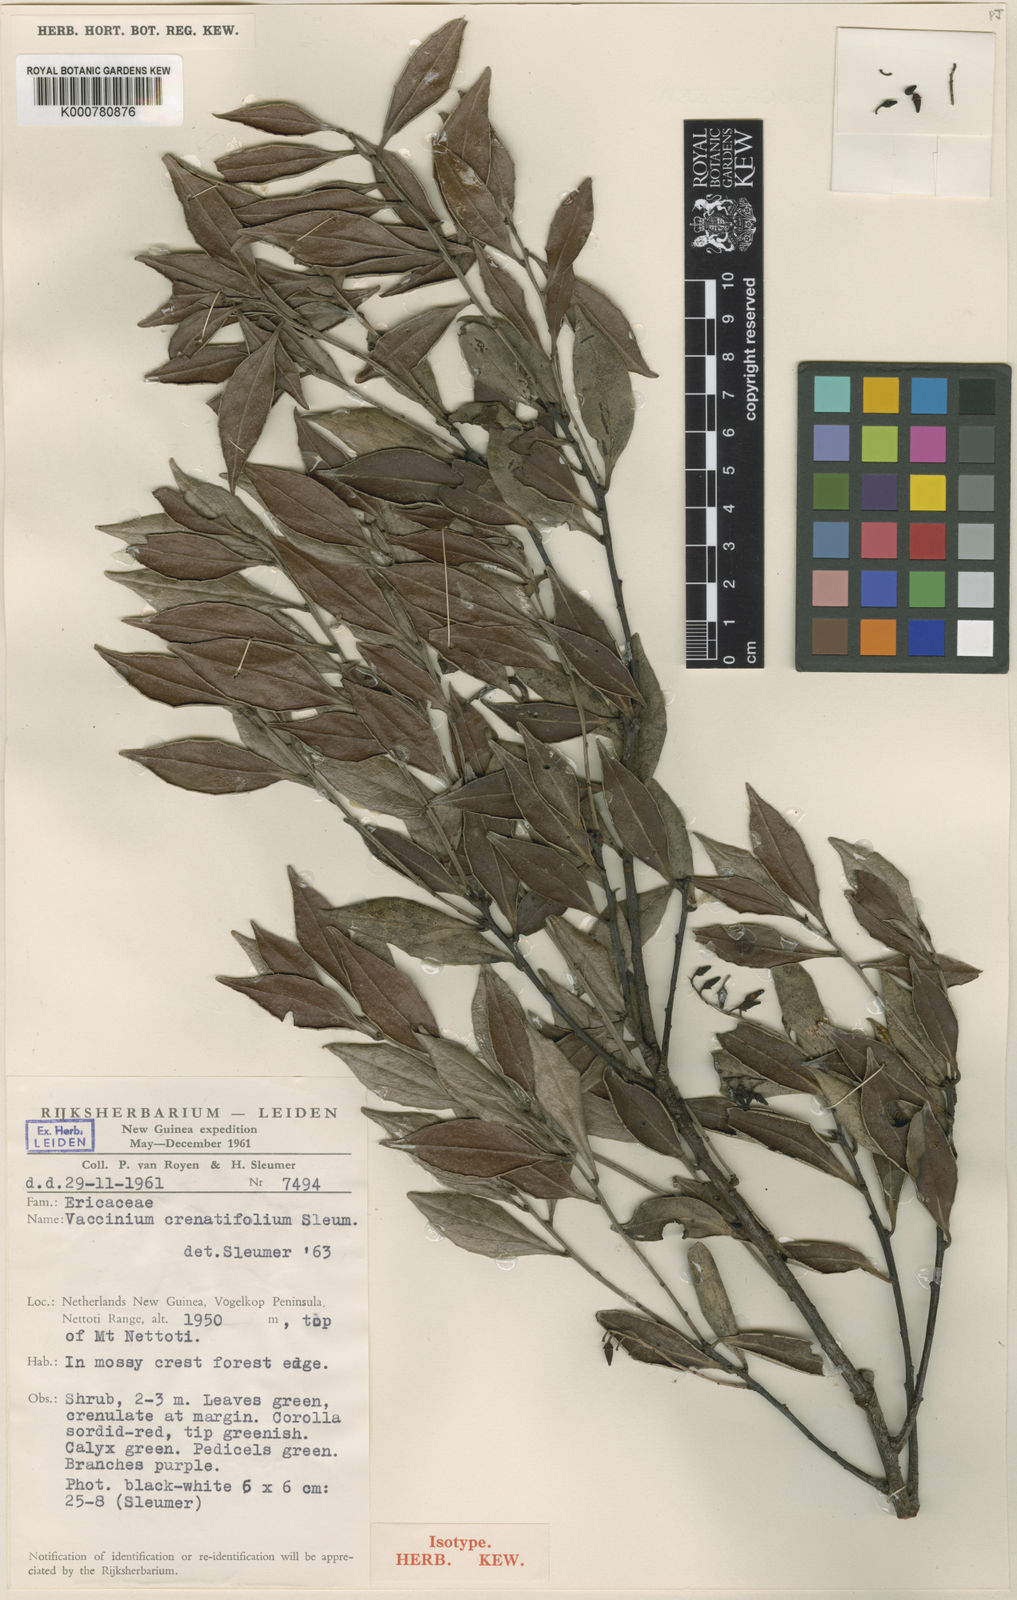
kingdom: Plantae
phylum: Tracheophyta
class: Magnoliopsida
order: Ericales
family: Ericaceae
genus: Vaccinium
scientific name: Vaccinium crenatifolium
